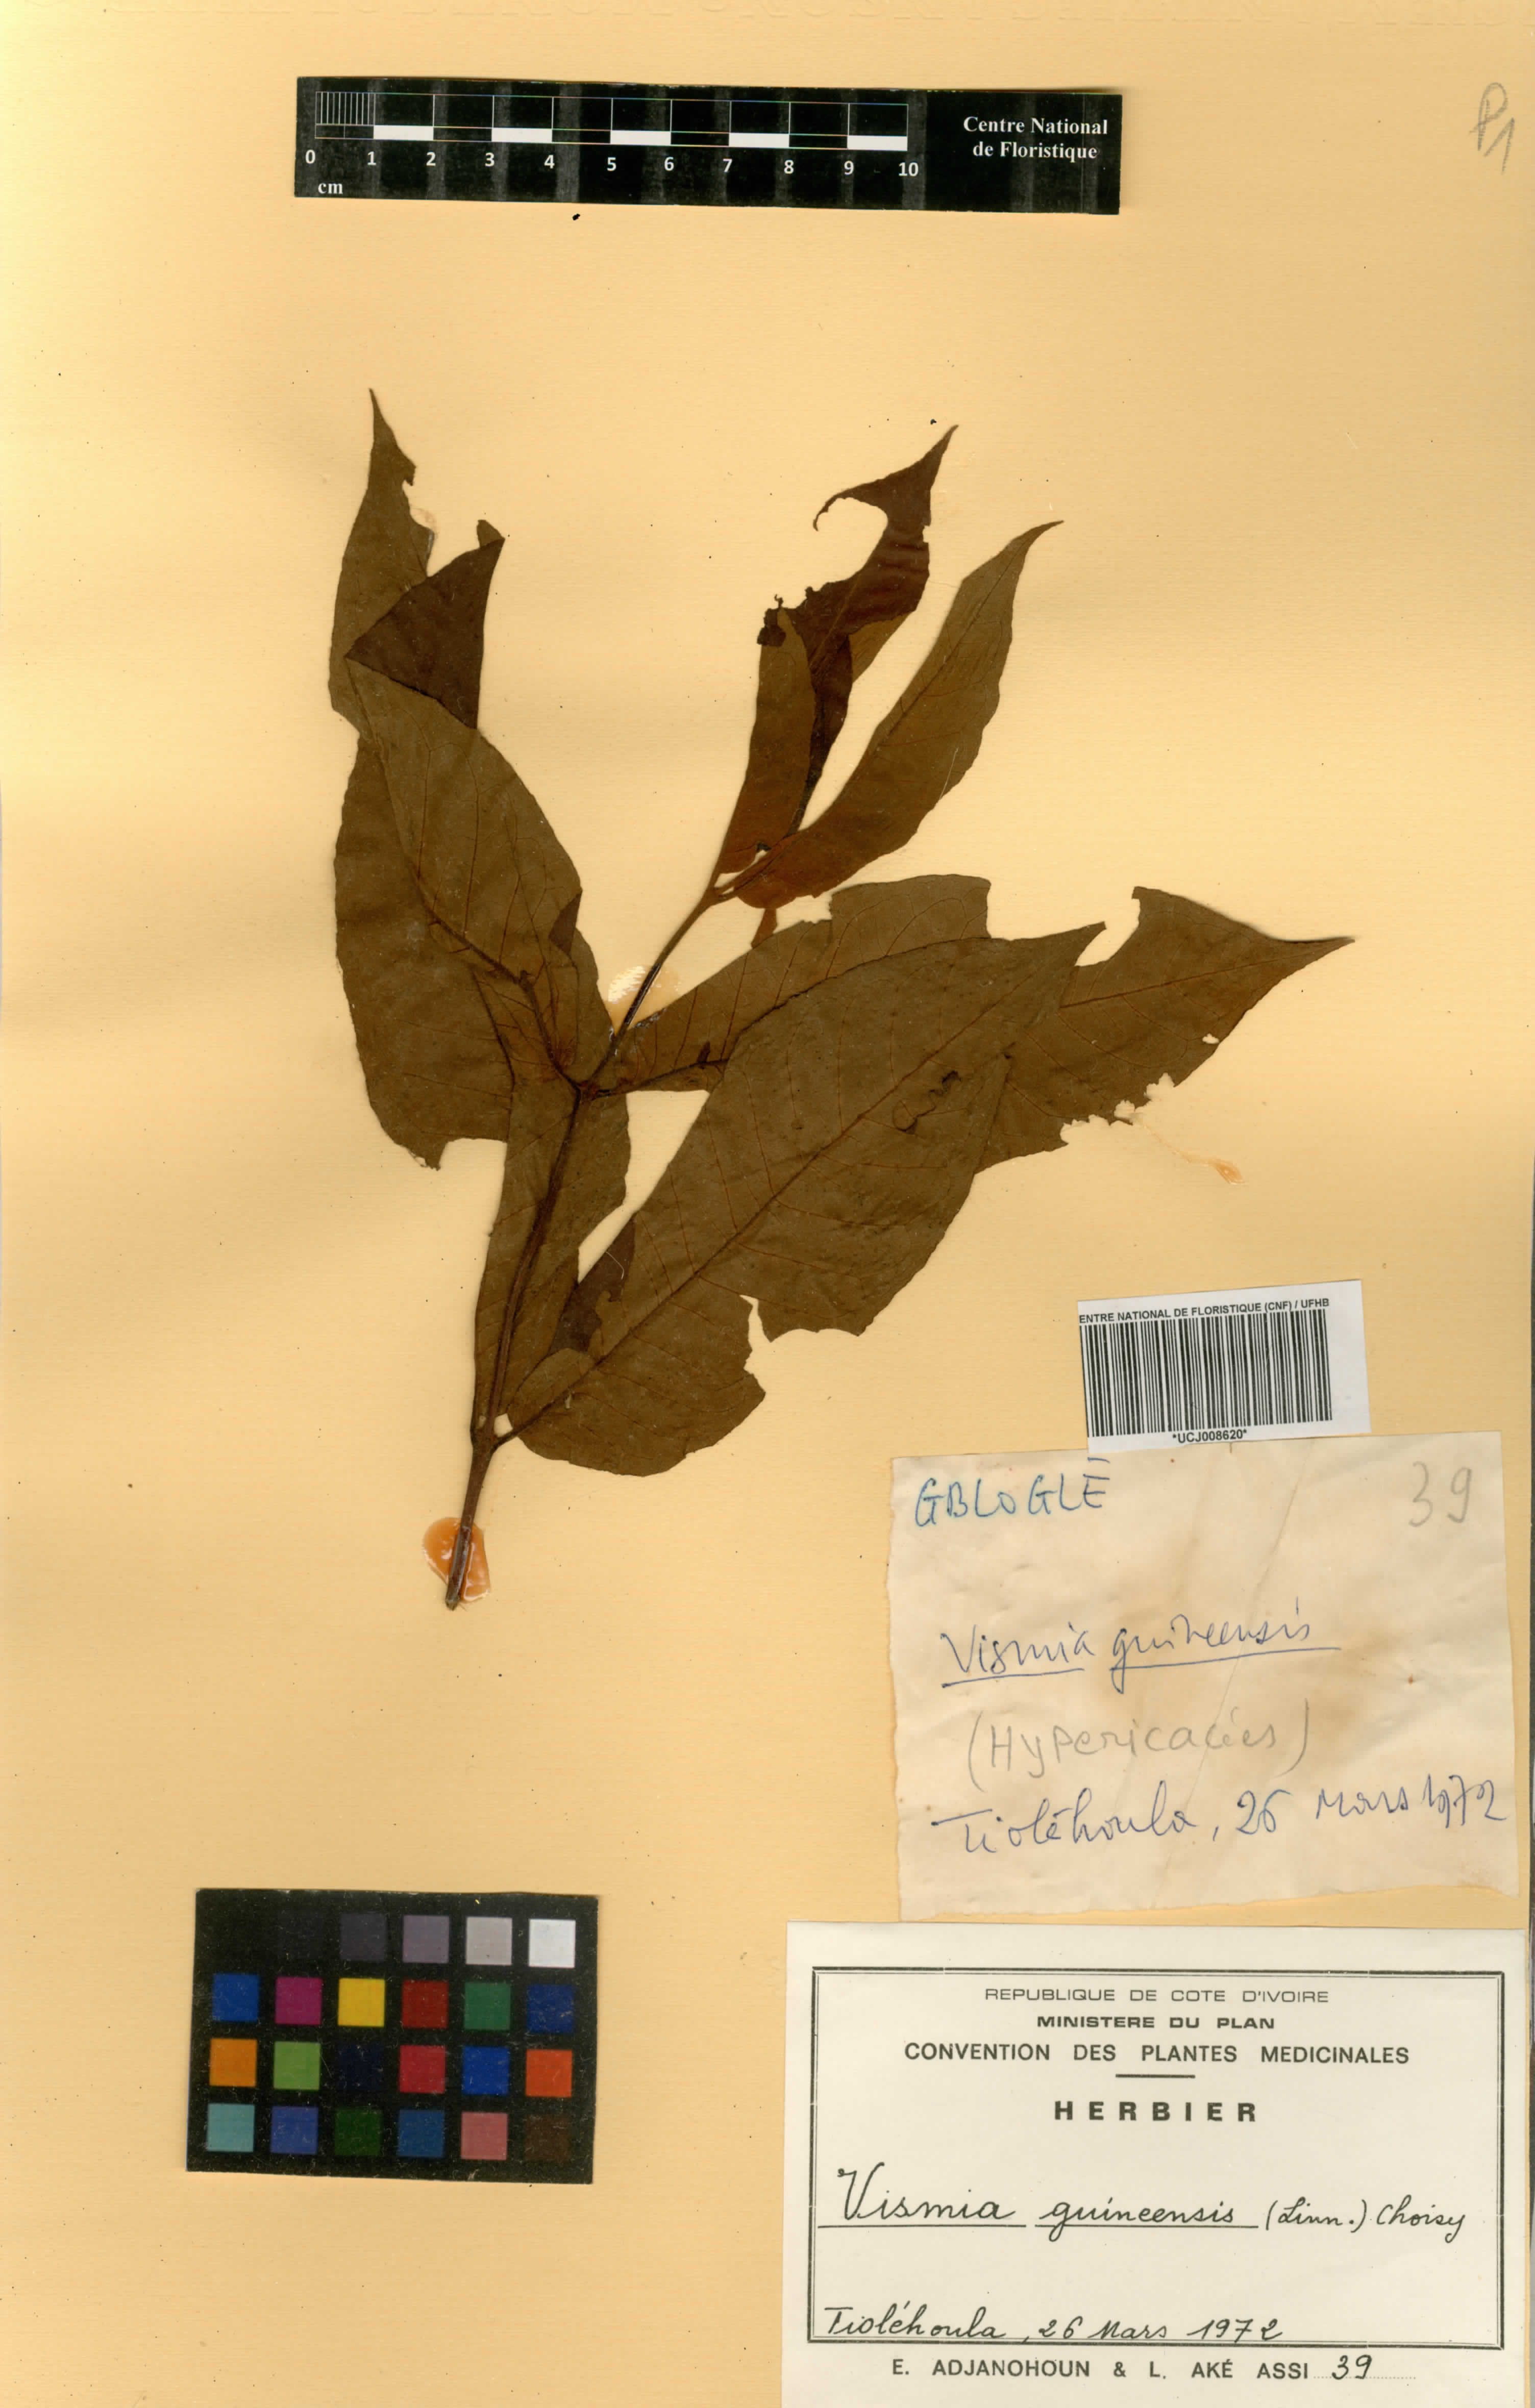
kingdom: Plantae
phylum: Tracheophyta
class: Magnoliopsida
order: Malpighiales
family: Hypericaceae
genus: Psorospermum
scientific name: Psorospermum guineense
